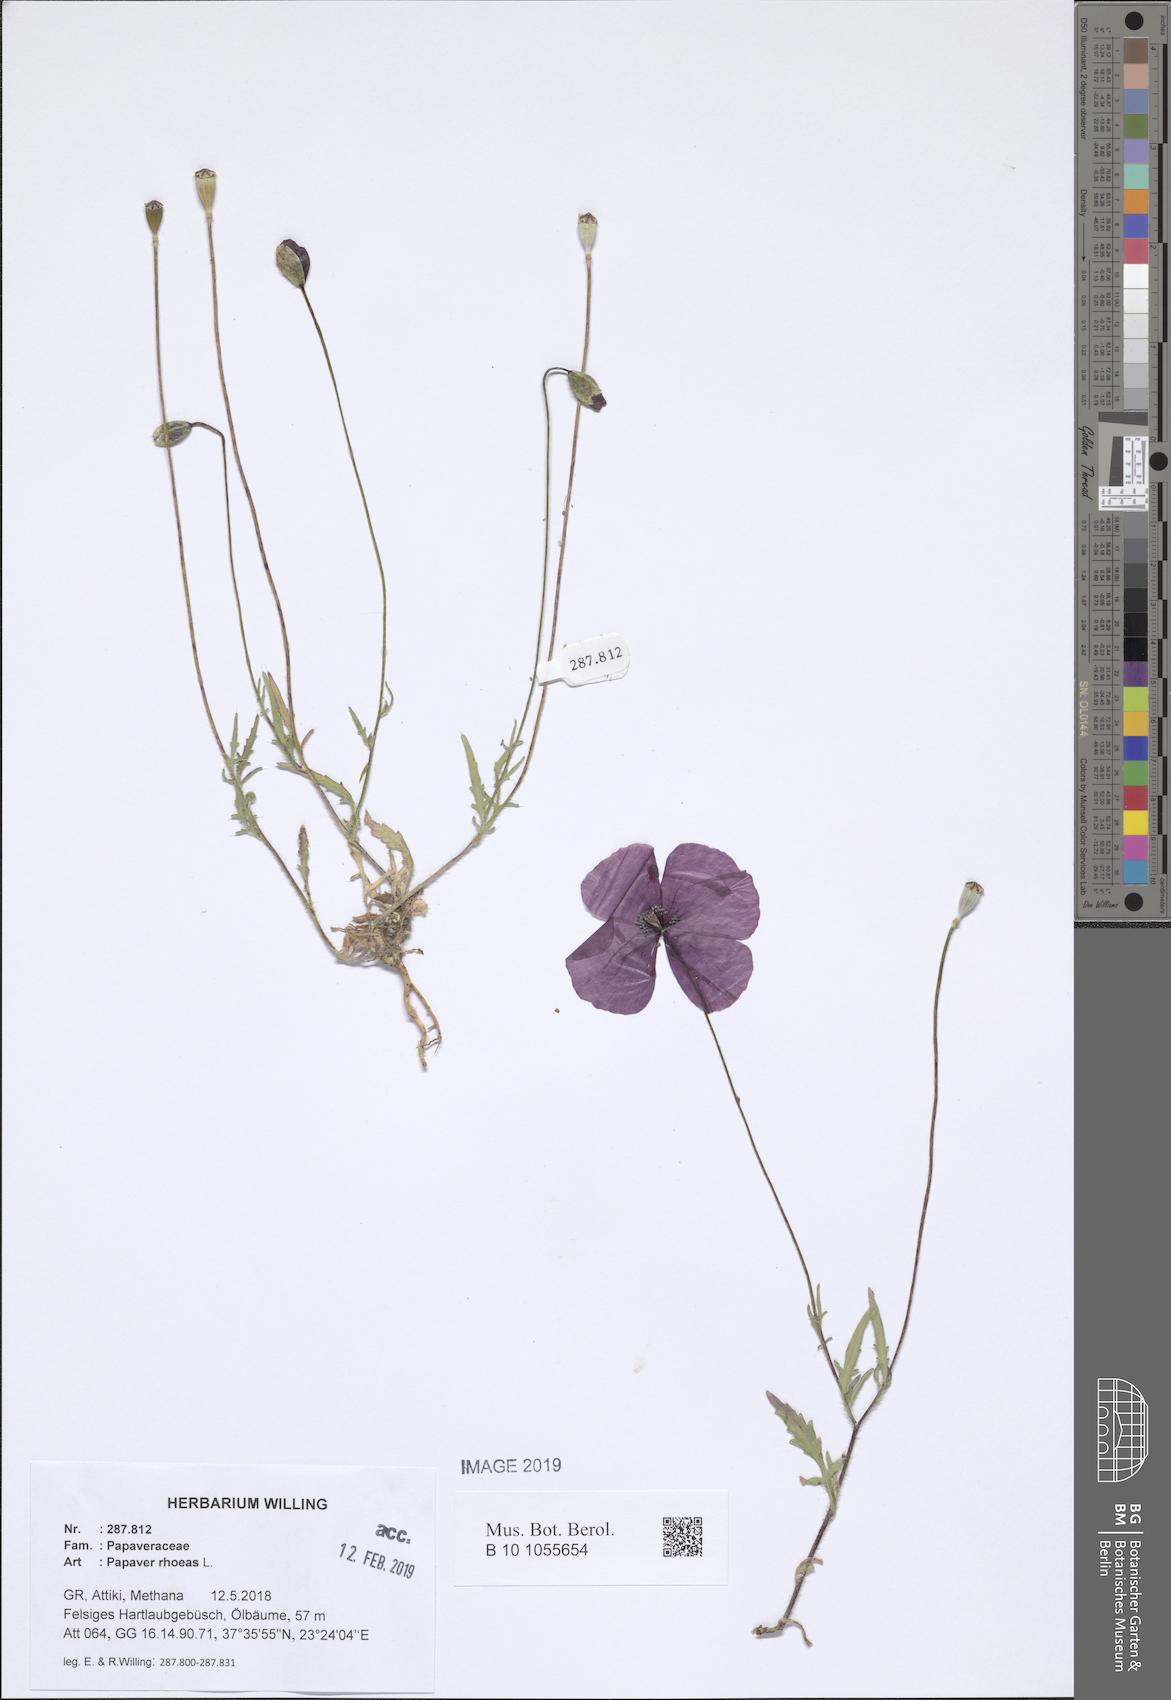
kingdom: Plantae
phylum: Tracheophyta
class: Magnoliopsida
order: Ranunculales
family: Papaveraceae
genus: Papaver
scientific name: Papaver rhoeas
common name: Corn poppy
